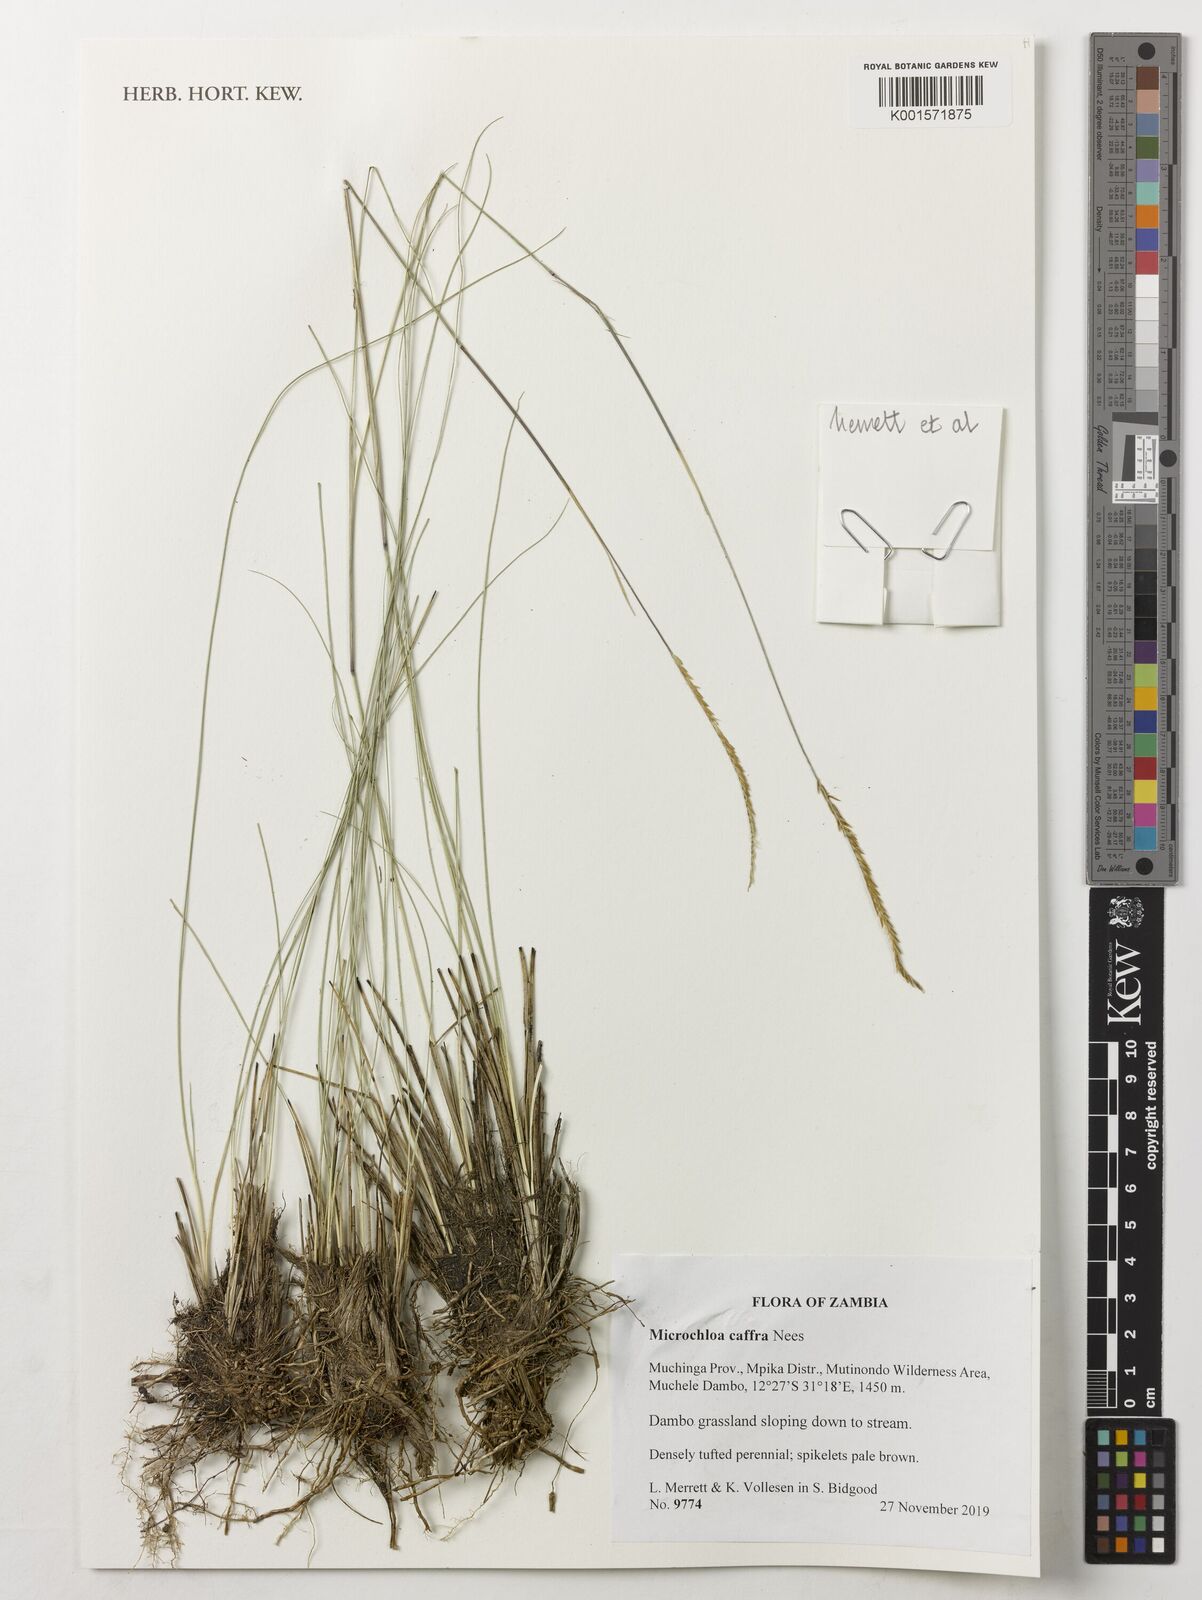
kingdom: Plantae
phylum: Tracheophyta
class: Liliopsida
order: Poales
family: Poaceae
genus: Microchloa
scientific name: Microchloa caffra
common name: Pincushion grass
